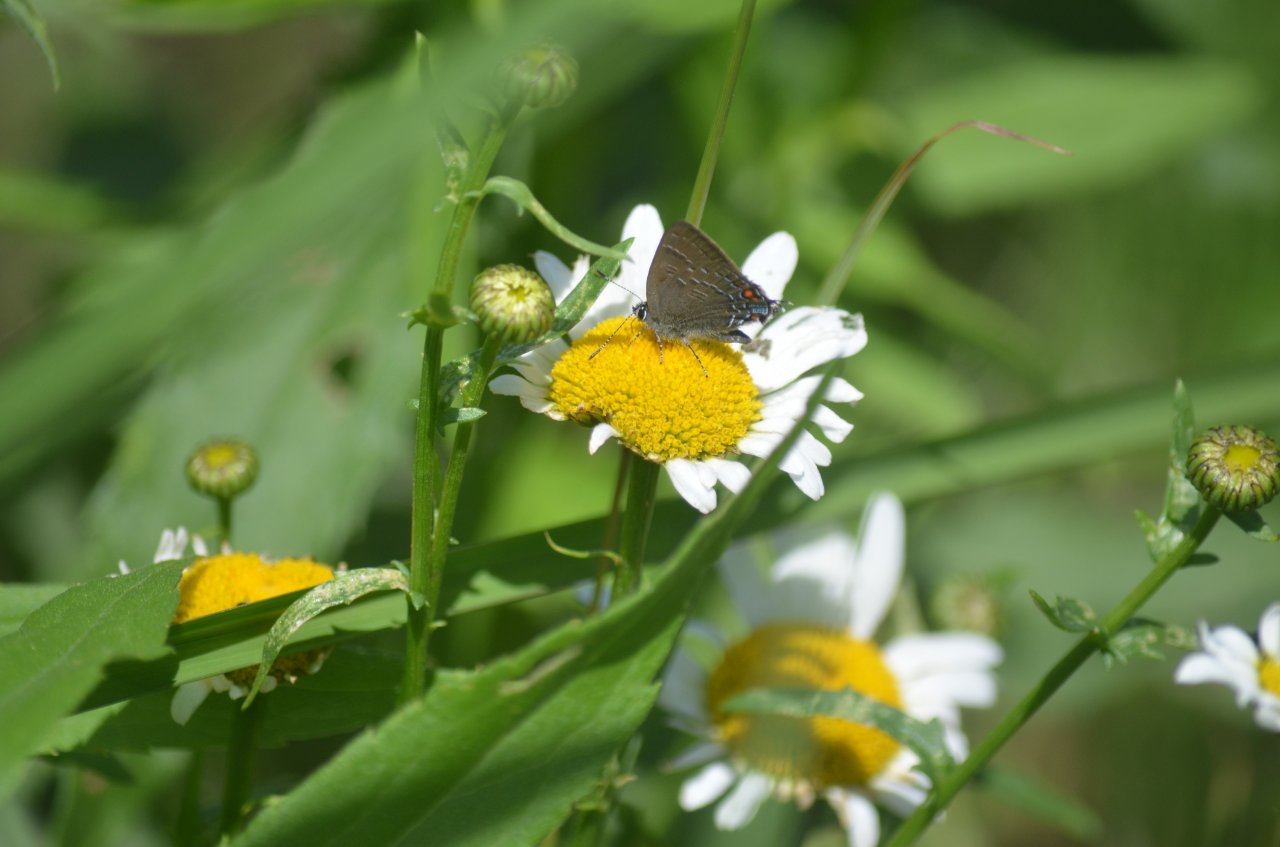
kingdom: Animalia
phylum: Arthropoda
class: Insecta
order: Lepidoptera
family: Lycaenidae
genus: Satyrium
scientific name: Satyrium calanus
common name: Banded Hairstreak
